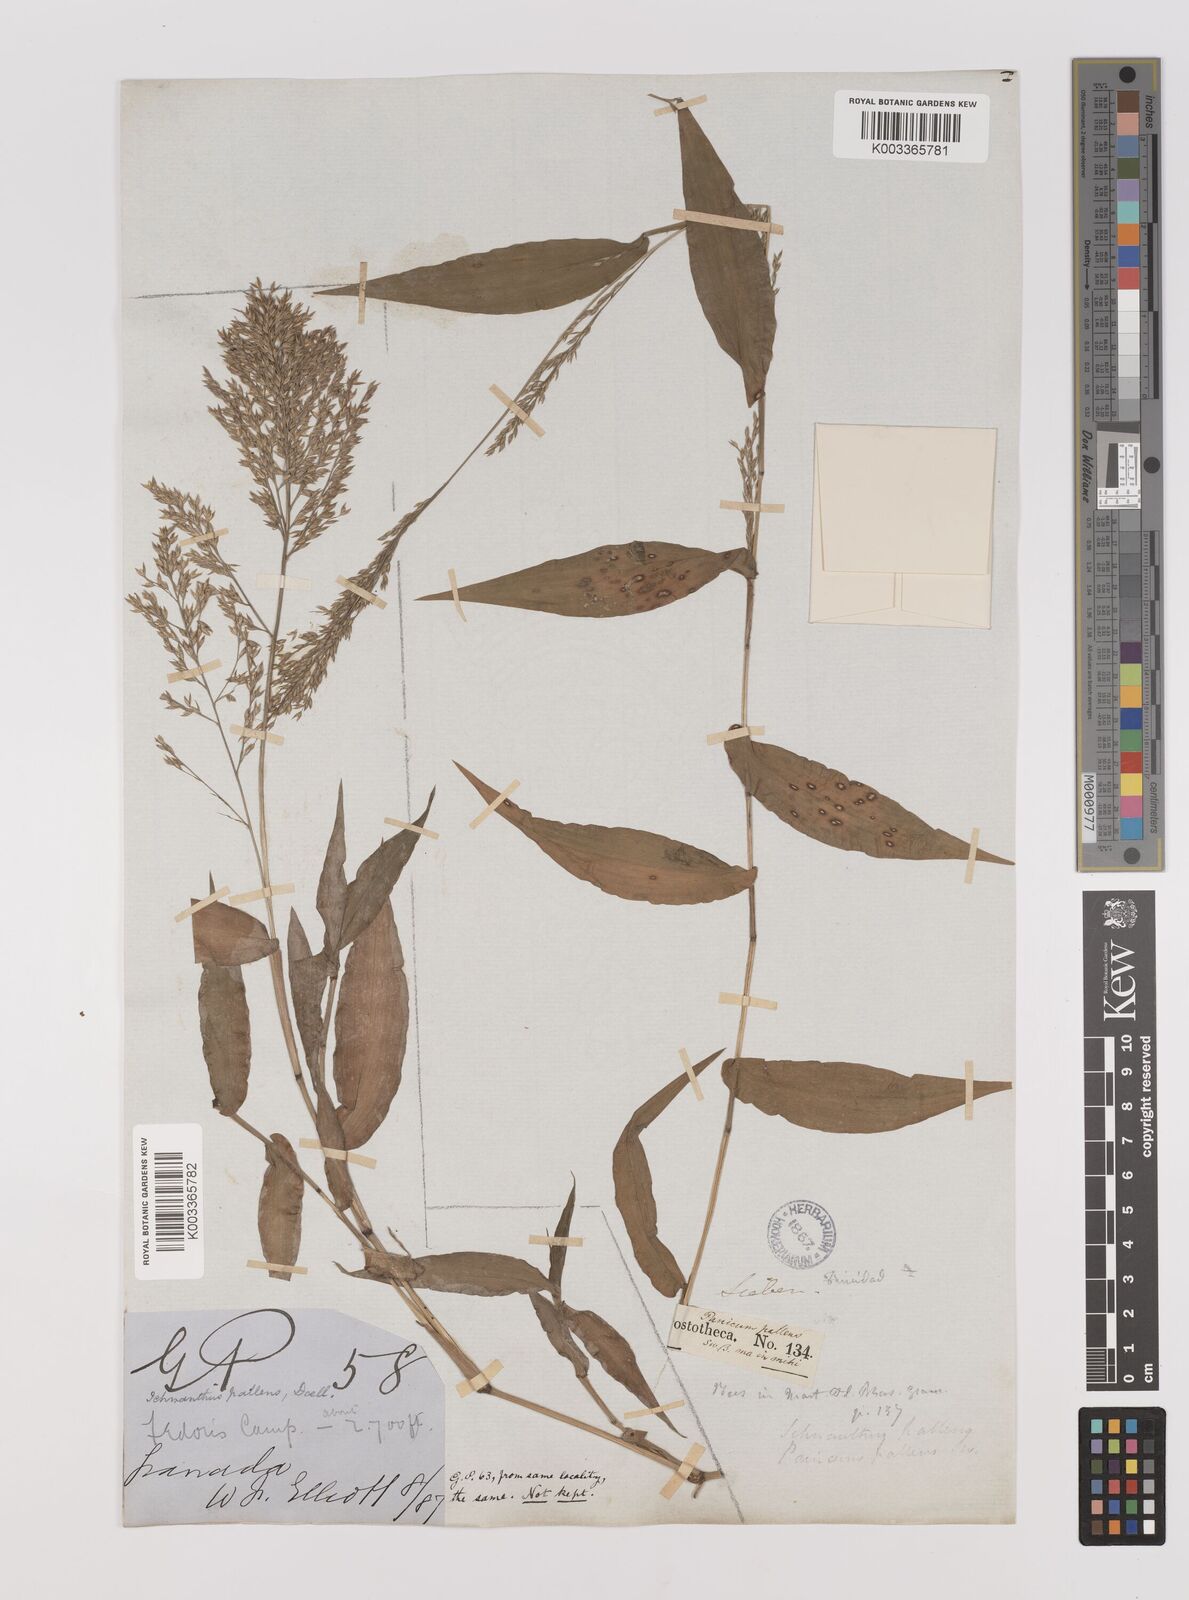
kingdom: Plantae
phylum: Tracheophyta
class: Liliopsida
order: Poales
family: Poaceae
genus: Ichnanthus
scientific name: Ichnanthus pallens
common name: Water grass
